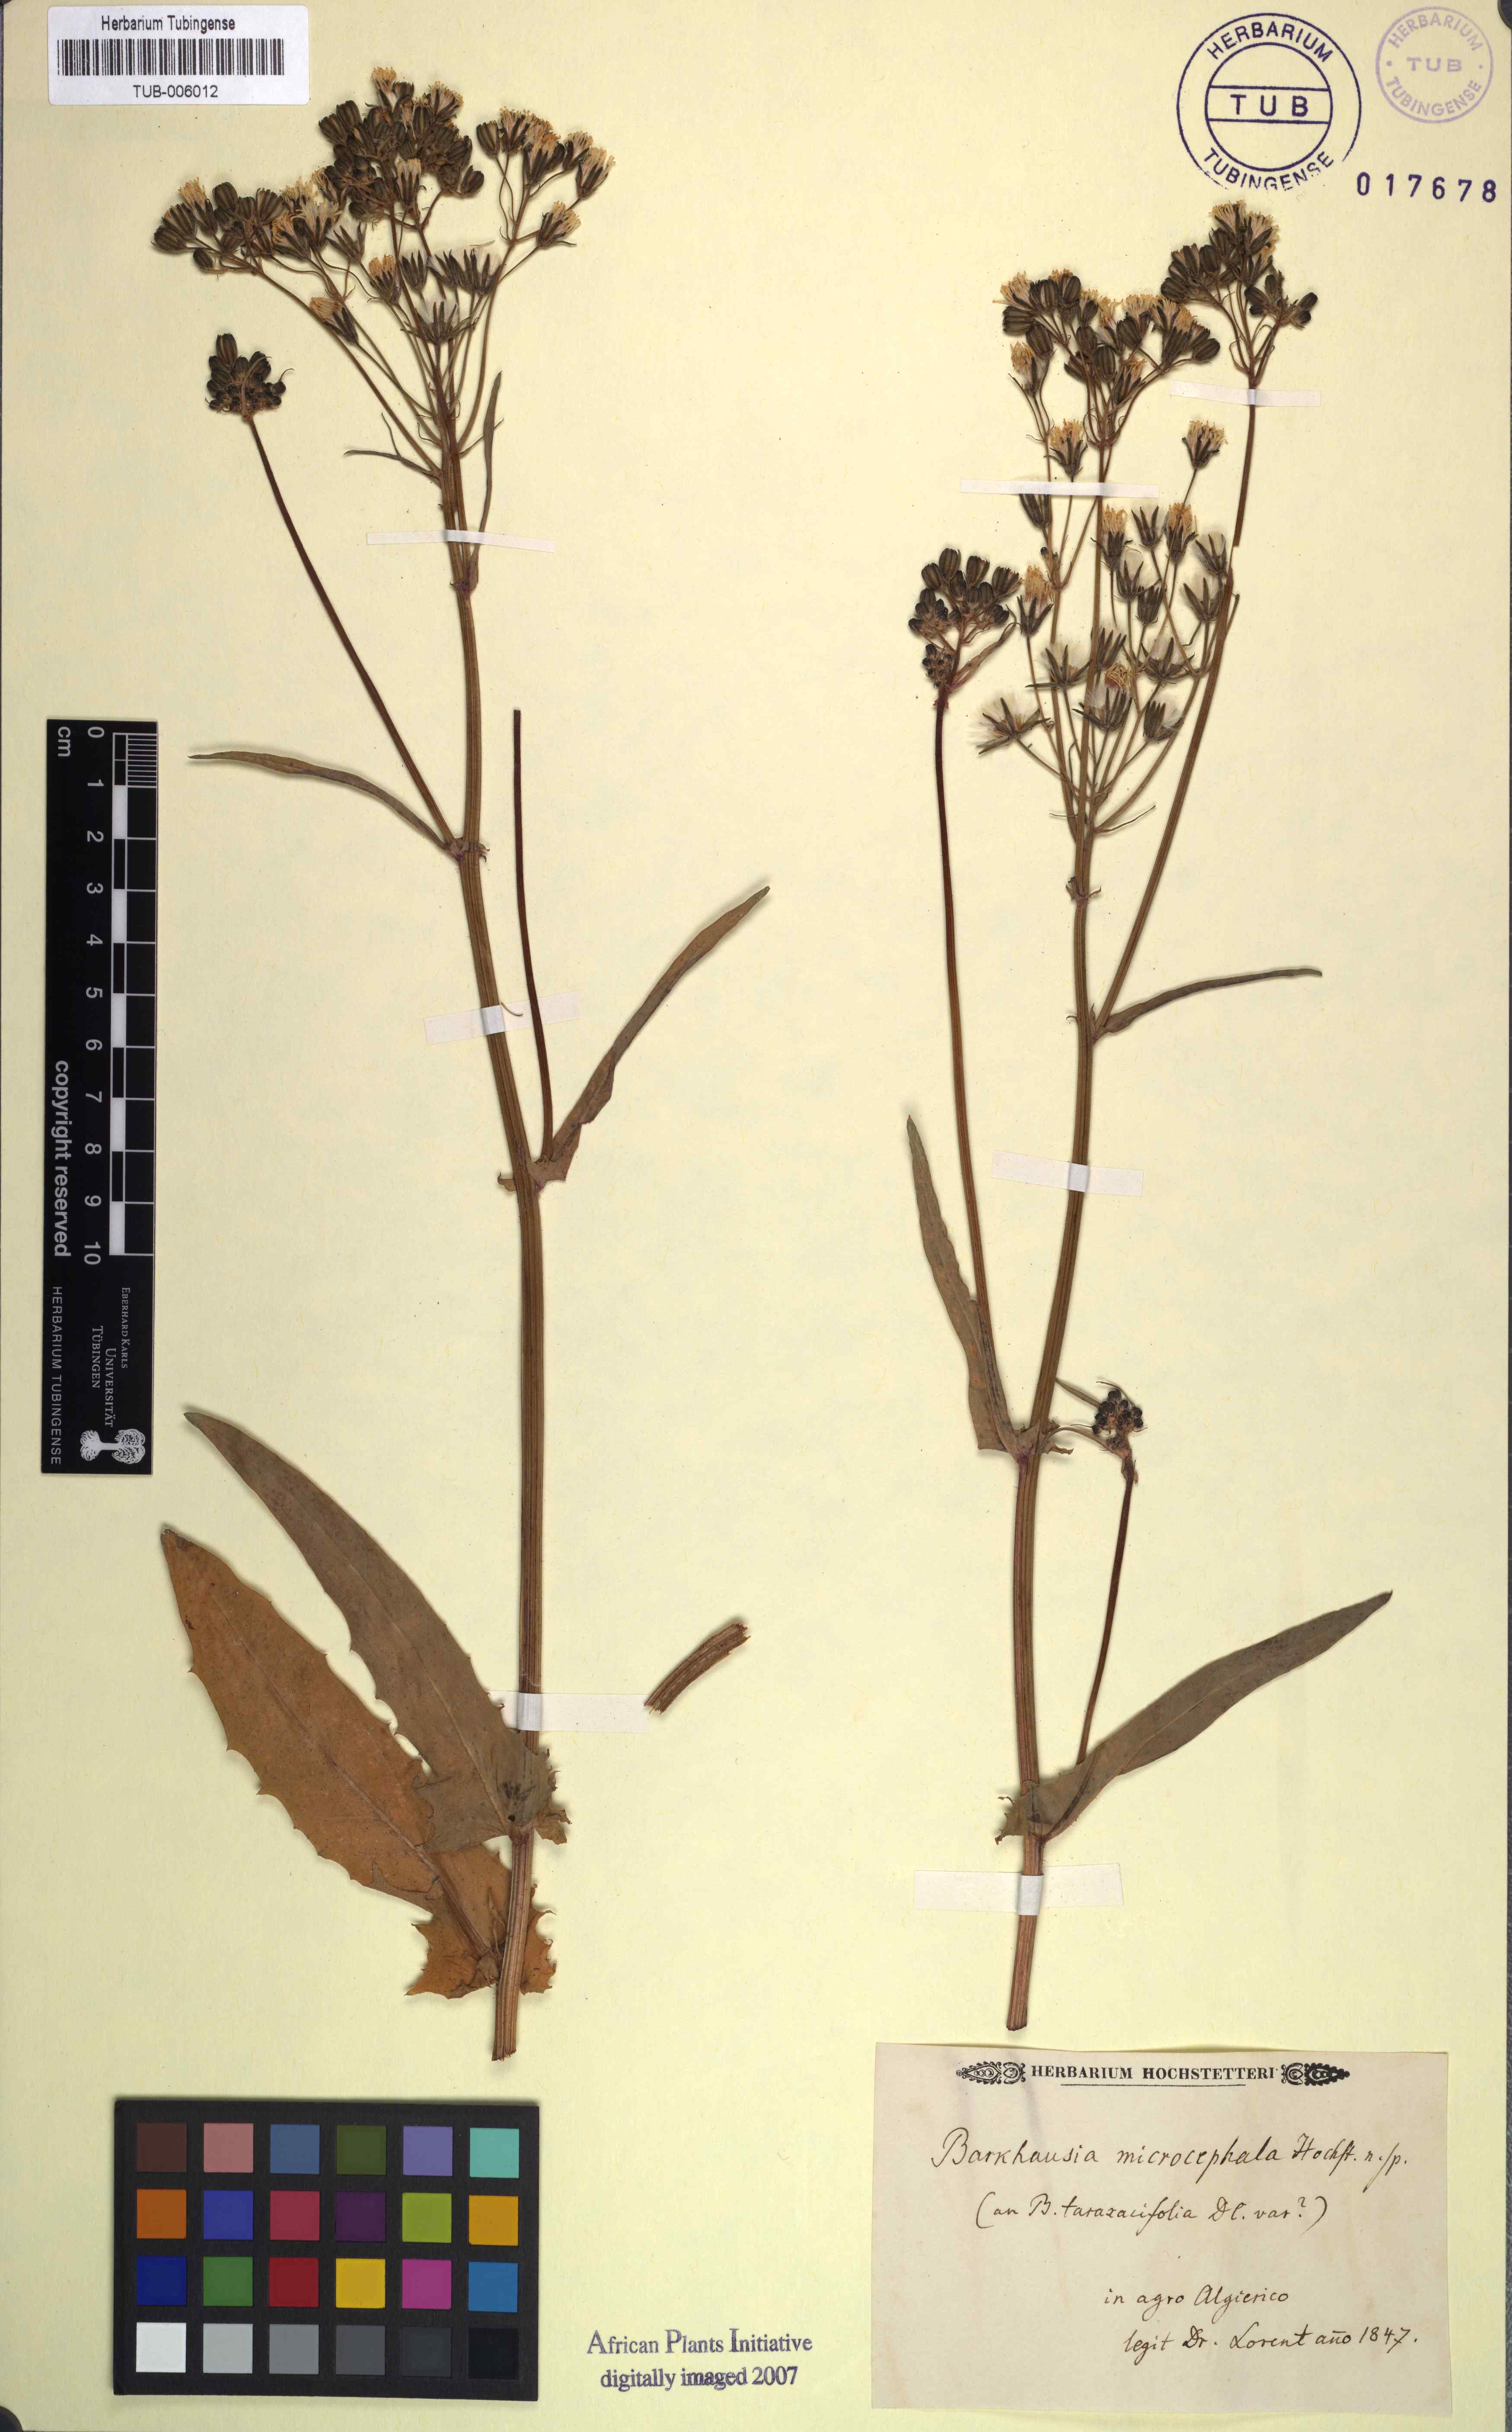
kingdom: Plantae
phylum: Tracheophyta
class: Magnoliopsida
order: Asterales
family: Asteraceae
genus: Crepis
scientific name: Crepis vesicaria
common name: Beaked hawksbeard
